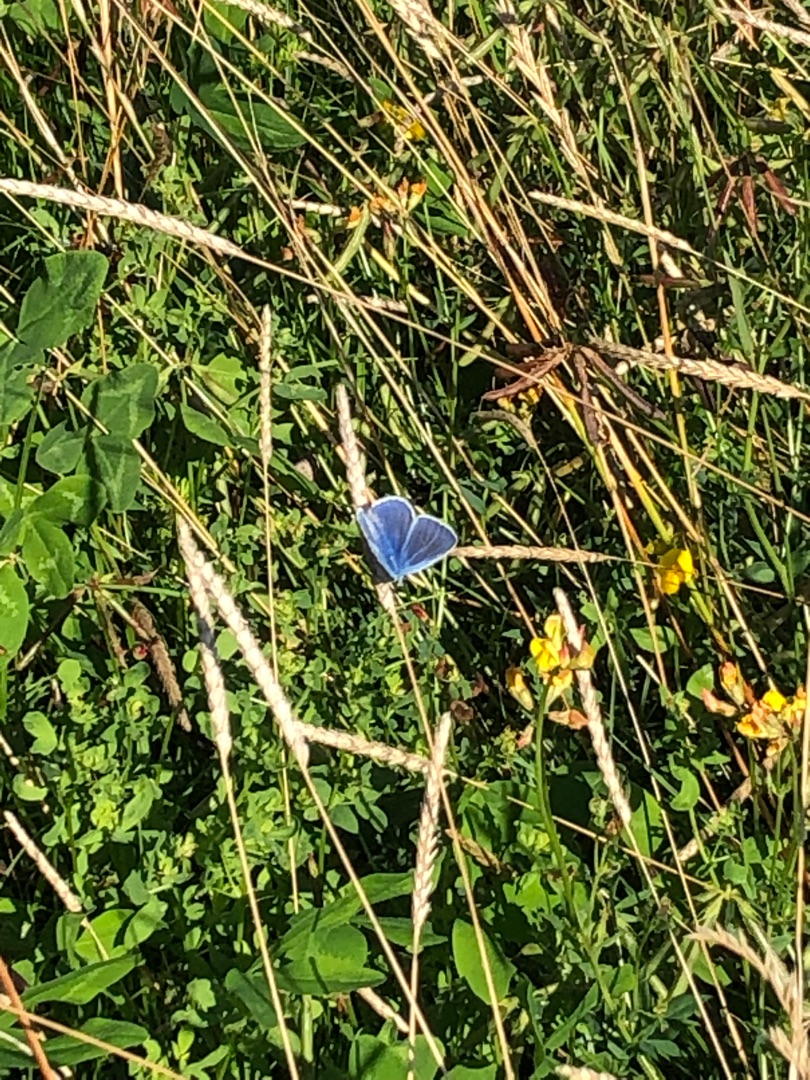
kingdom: Animalia
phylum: Arthropoda
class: Insecta
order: Lepidoptera
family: Lycaenidae
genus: Polyommatus
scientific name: Polyommatus icarus
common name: Almindelig blåfugl
